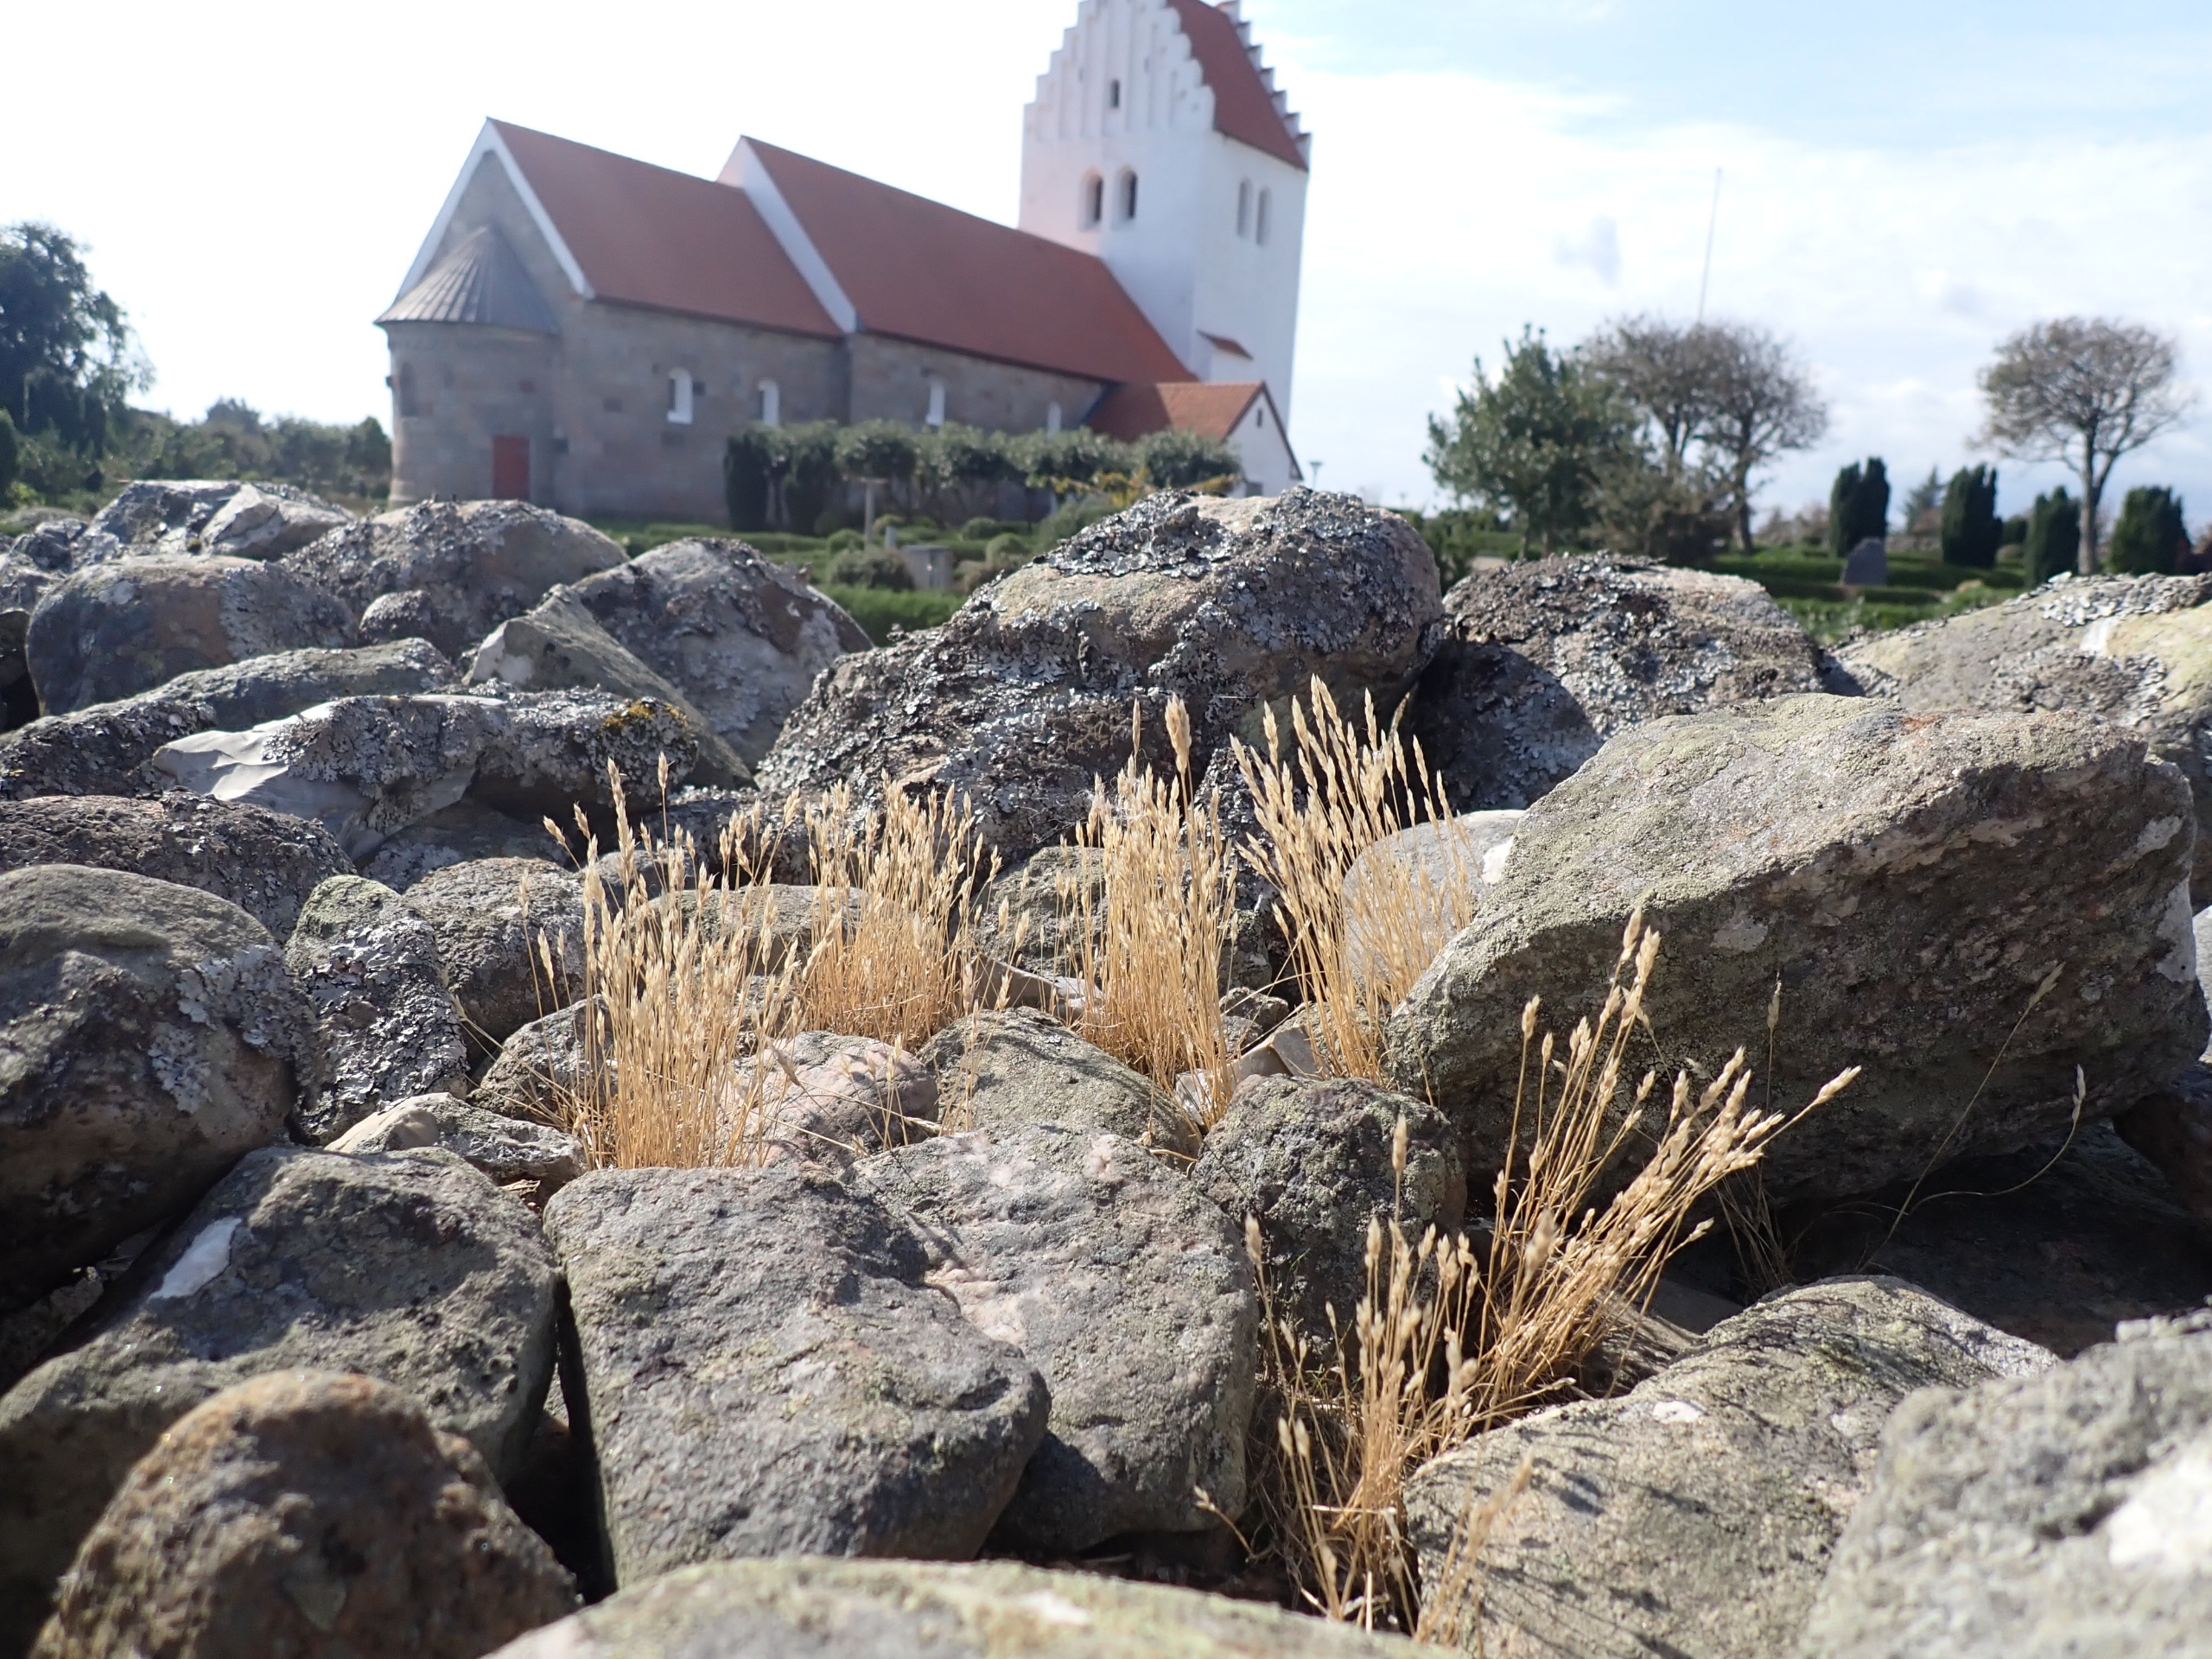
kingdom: Plantae
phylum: Tracheophyta
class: Liliopsida
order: Poales
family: Poaceae
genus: Aira
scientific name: Aira praecox
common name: Tidlig dværgbunke
